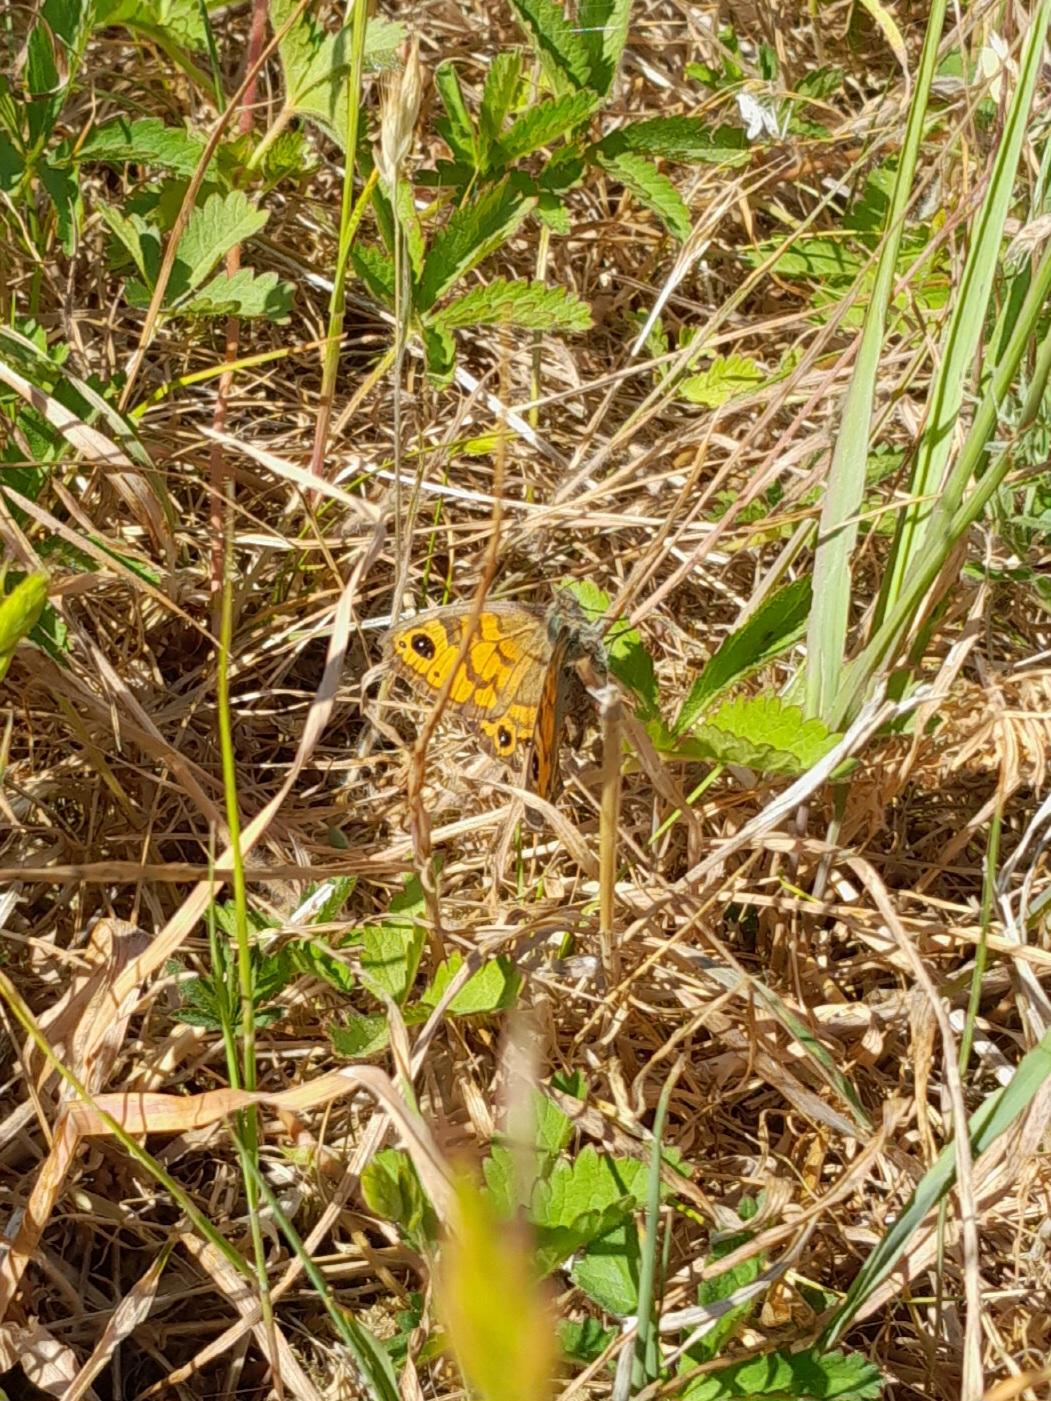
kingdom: Animalia
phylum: Arthropoda
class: Insecta
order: Lepidoptera
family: Nymphalidae
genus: Pararge
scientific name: Pararge Lasiommata megera
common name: Vejrandøje
